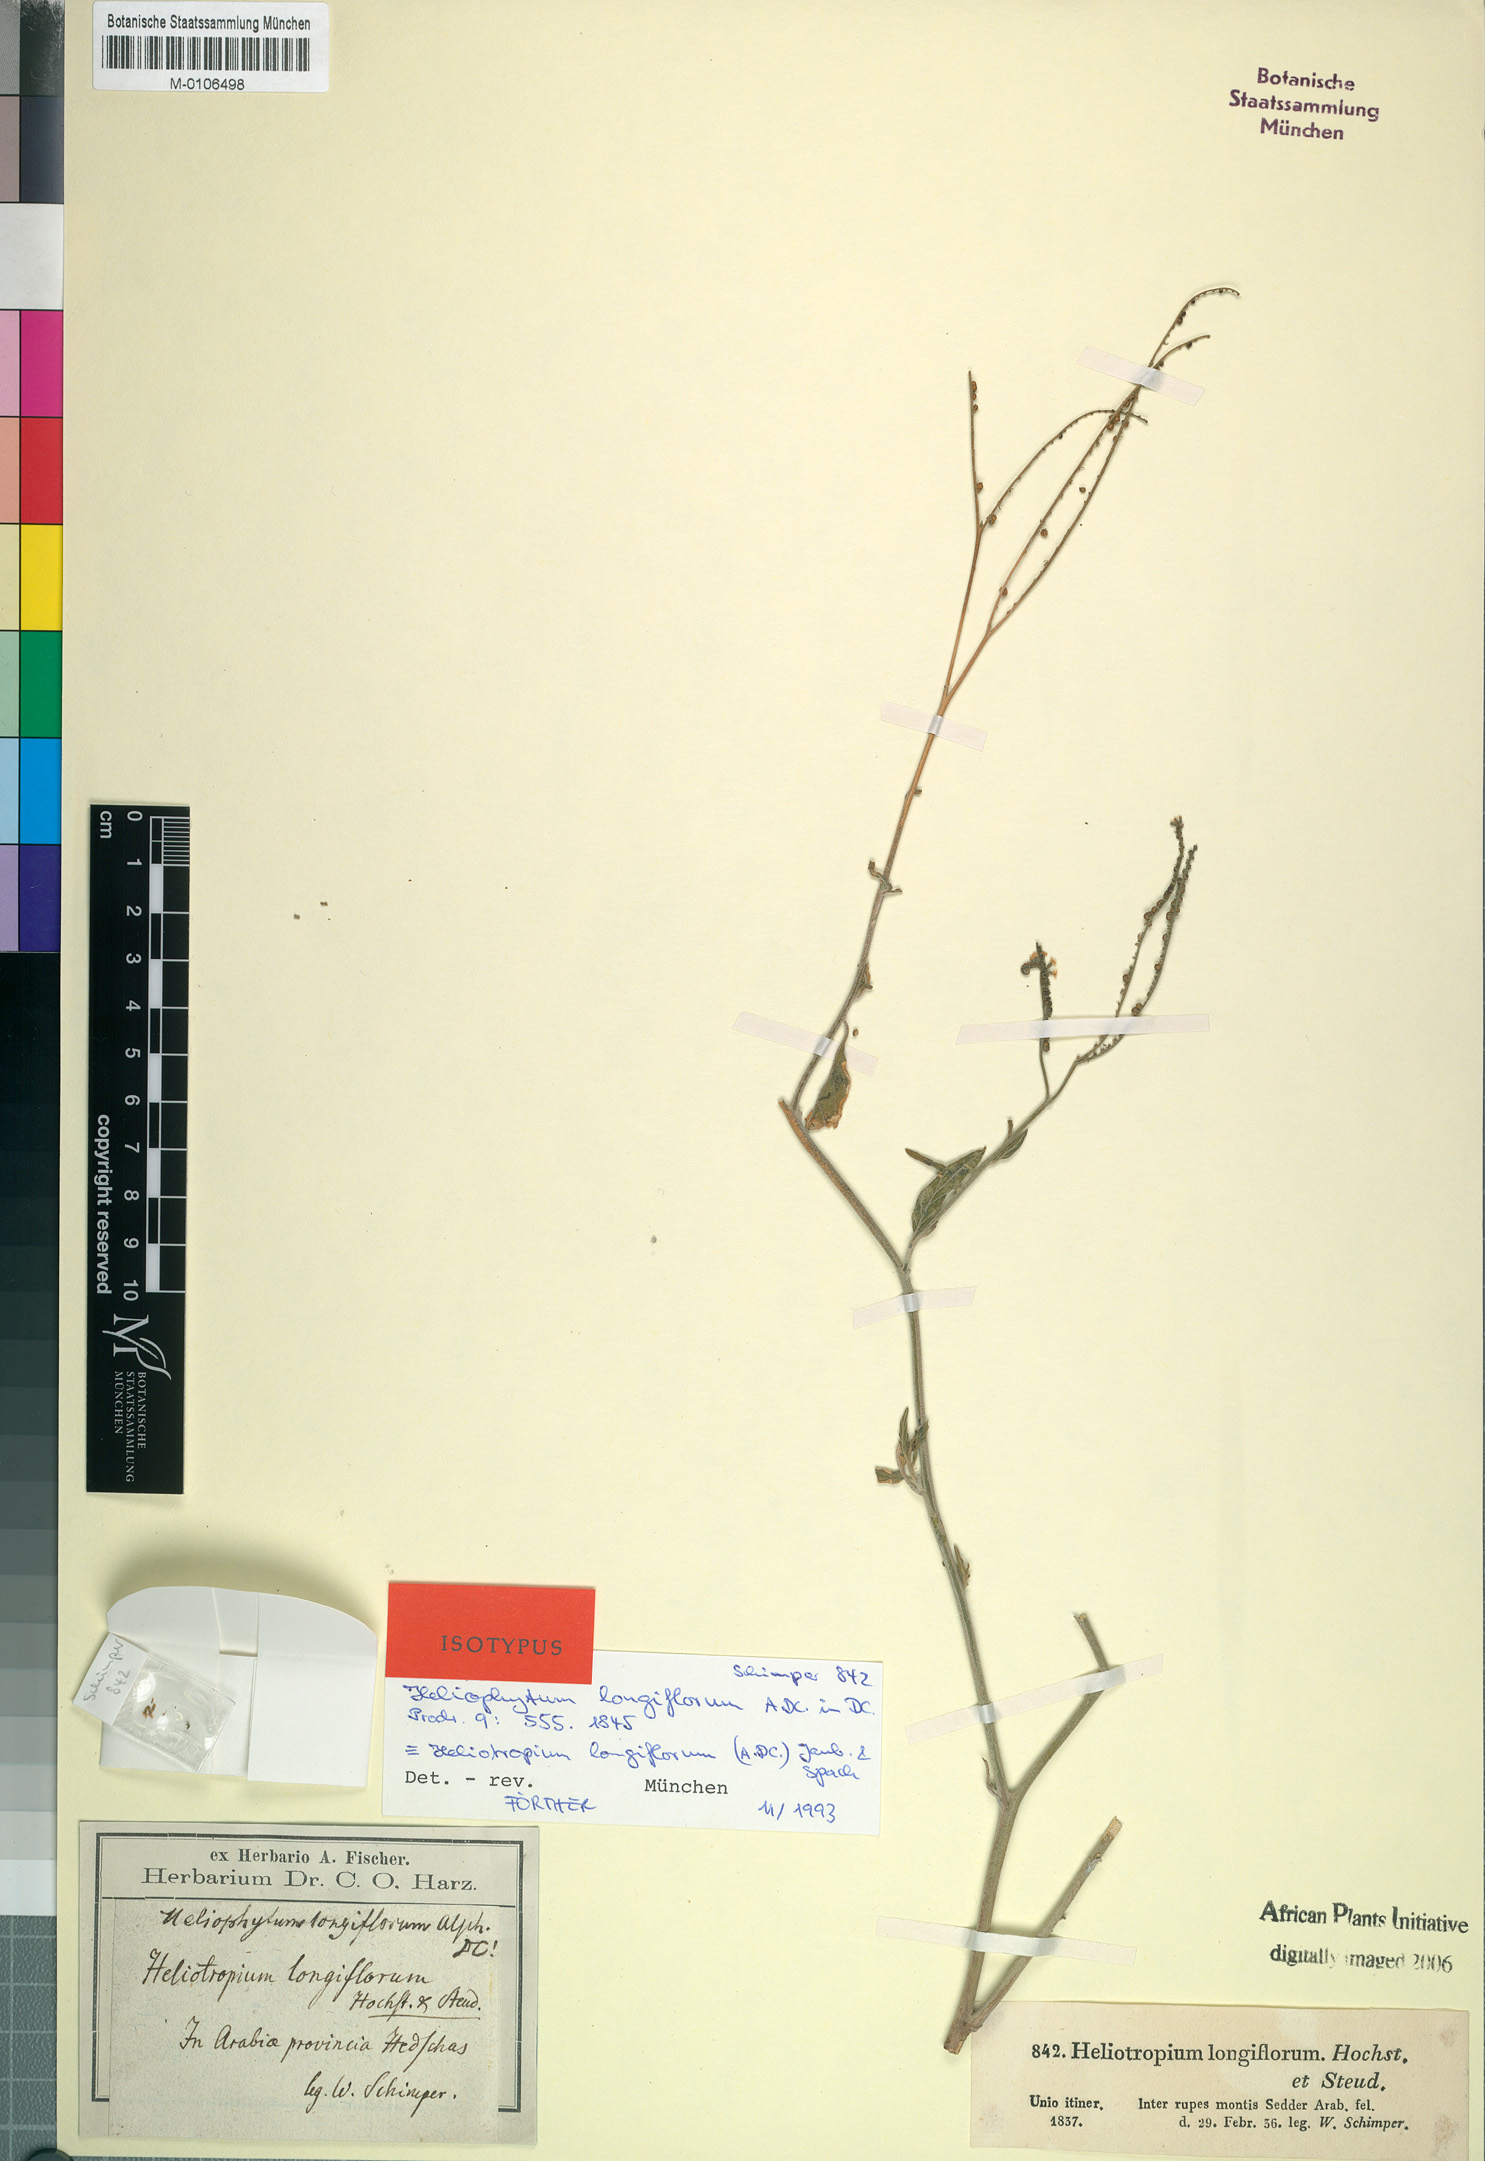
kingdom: Plantae
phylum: Tracheophyta
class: Magnoliopsida
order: Boraginales
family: Heliotropiaceae
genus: Heliotropium
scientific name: Heliotropium longiflorum
